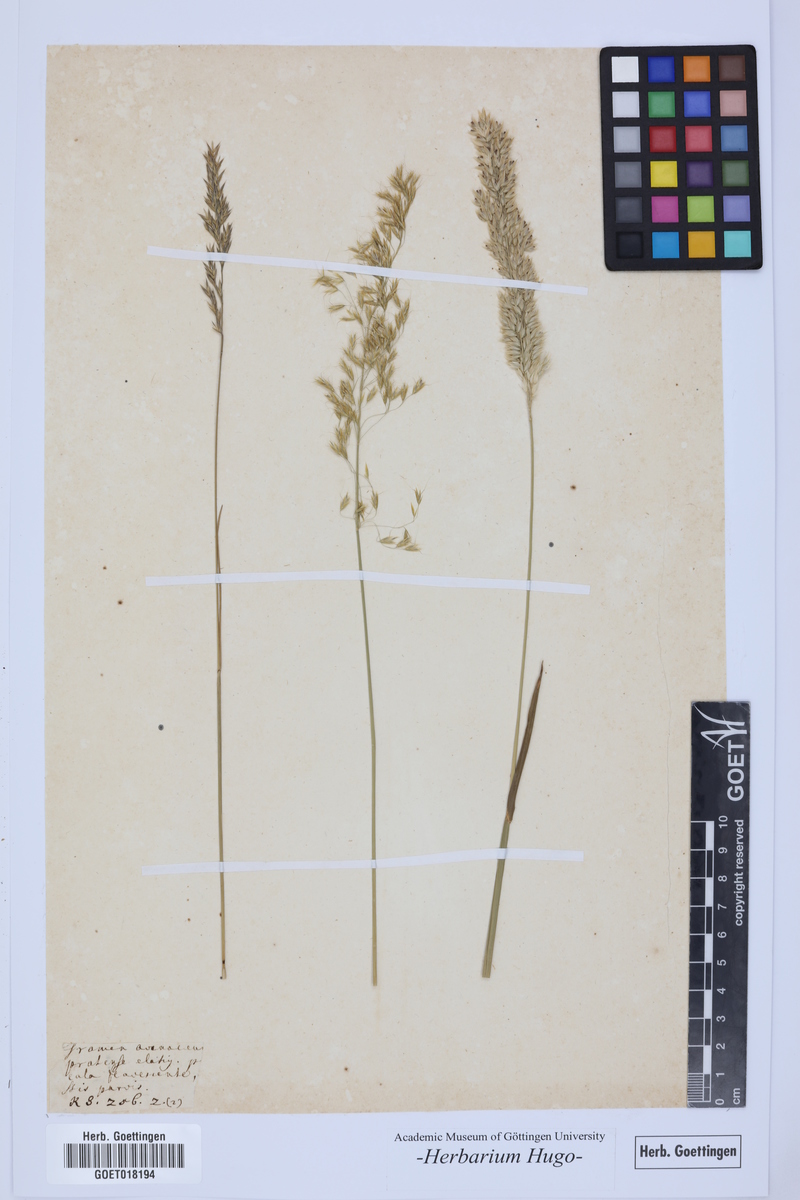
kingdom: Plantae
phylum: Tracheophyta
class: Liliopsida
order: Poales
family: Poaceae
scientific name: Poaceae
